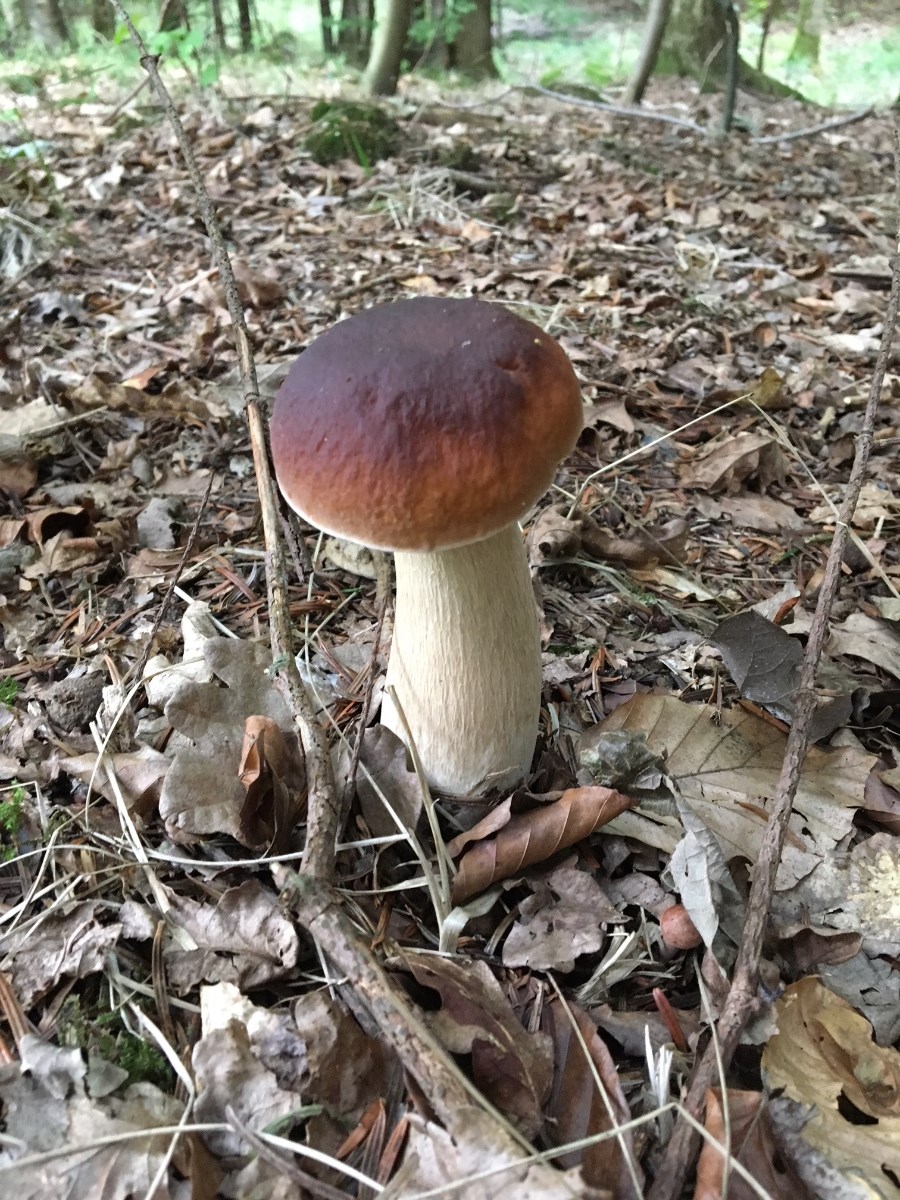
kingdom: Fungi
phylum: Basidiomycota
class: Agaricomycetes
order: Boletales
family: Boletaceae
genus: Boletus
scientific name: Boletus edulis
